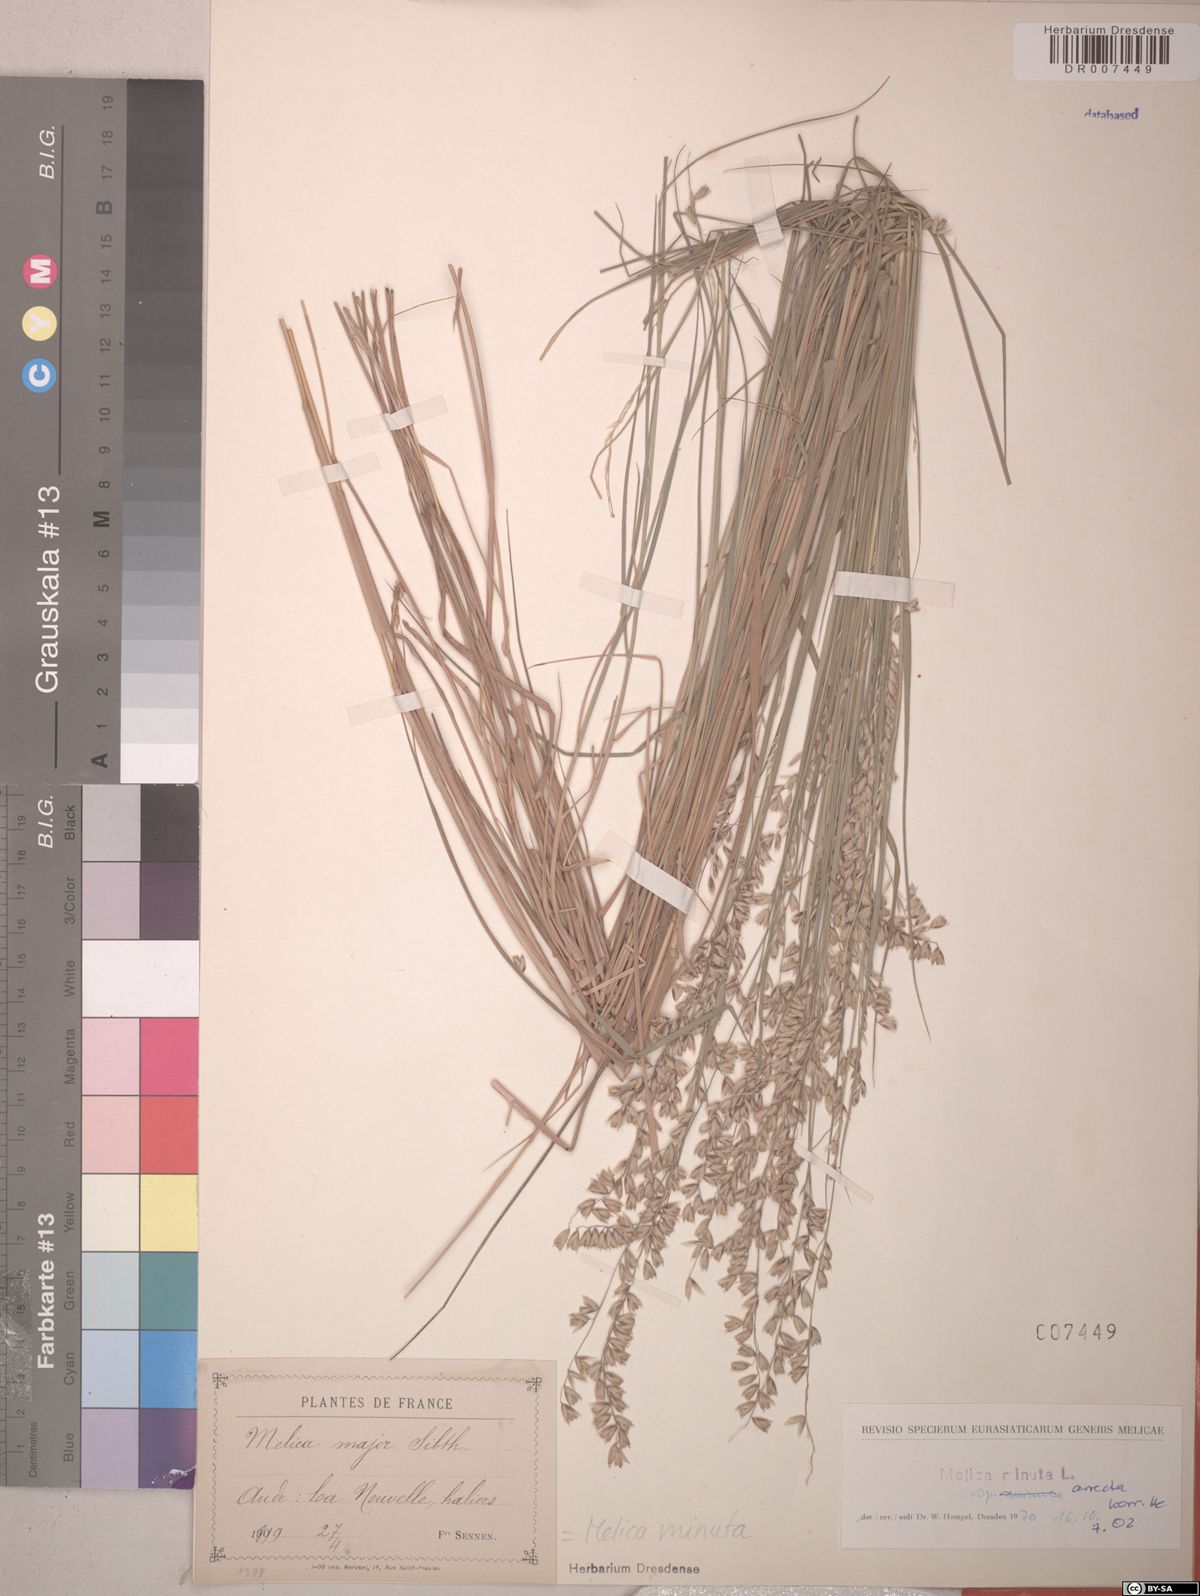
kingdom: Plantae
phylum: Tracheophyta
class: Liliopsida
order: Poales
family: Poaceae
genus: Melica
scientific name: Melica minuta
